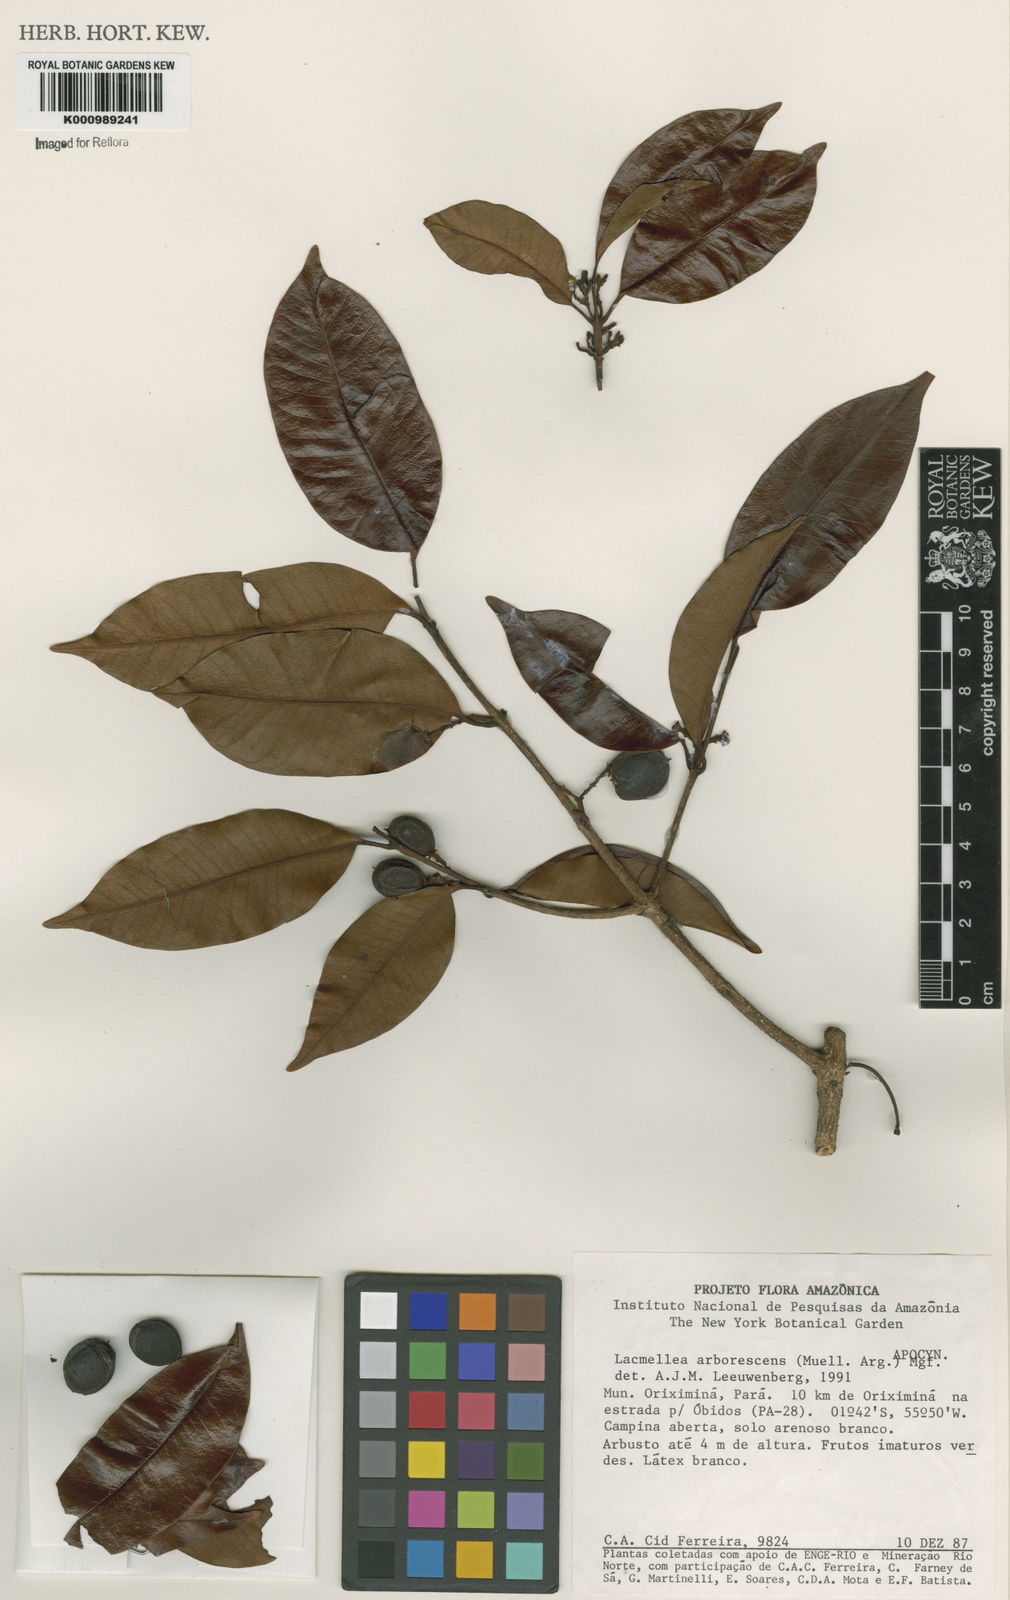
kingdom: Plantae
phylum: Tracheophyta
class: Magnoliopsida
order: Gentianales
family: Apocynaceae
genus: Lacmellea
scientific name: Lacmellea
